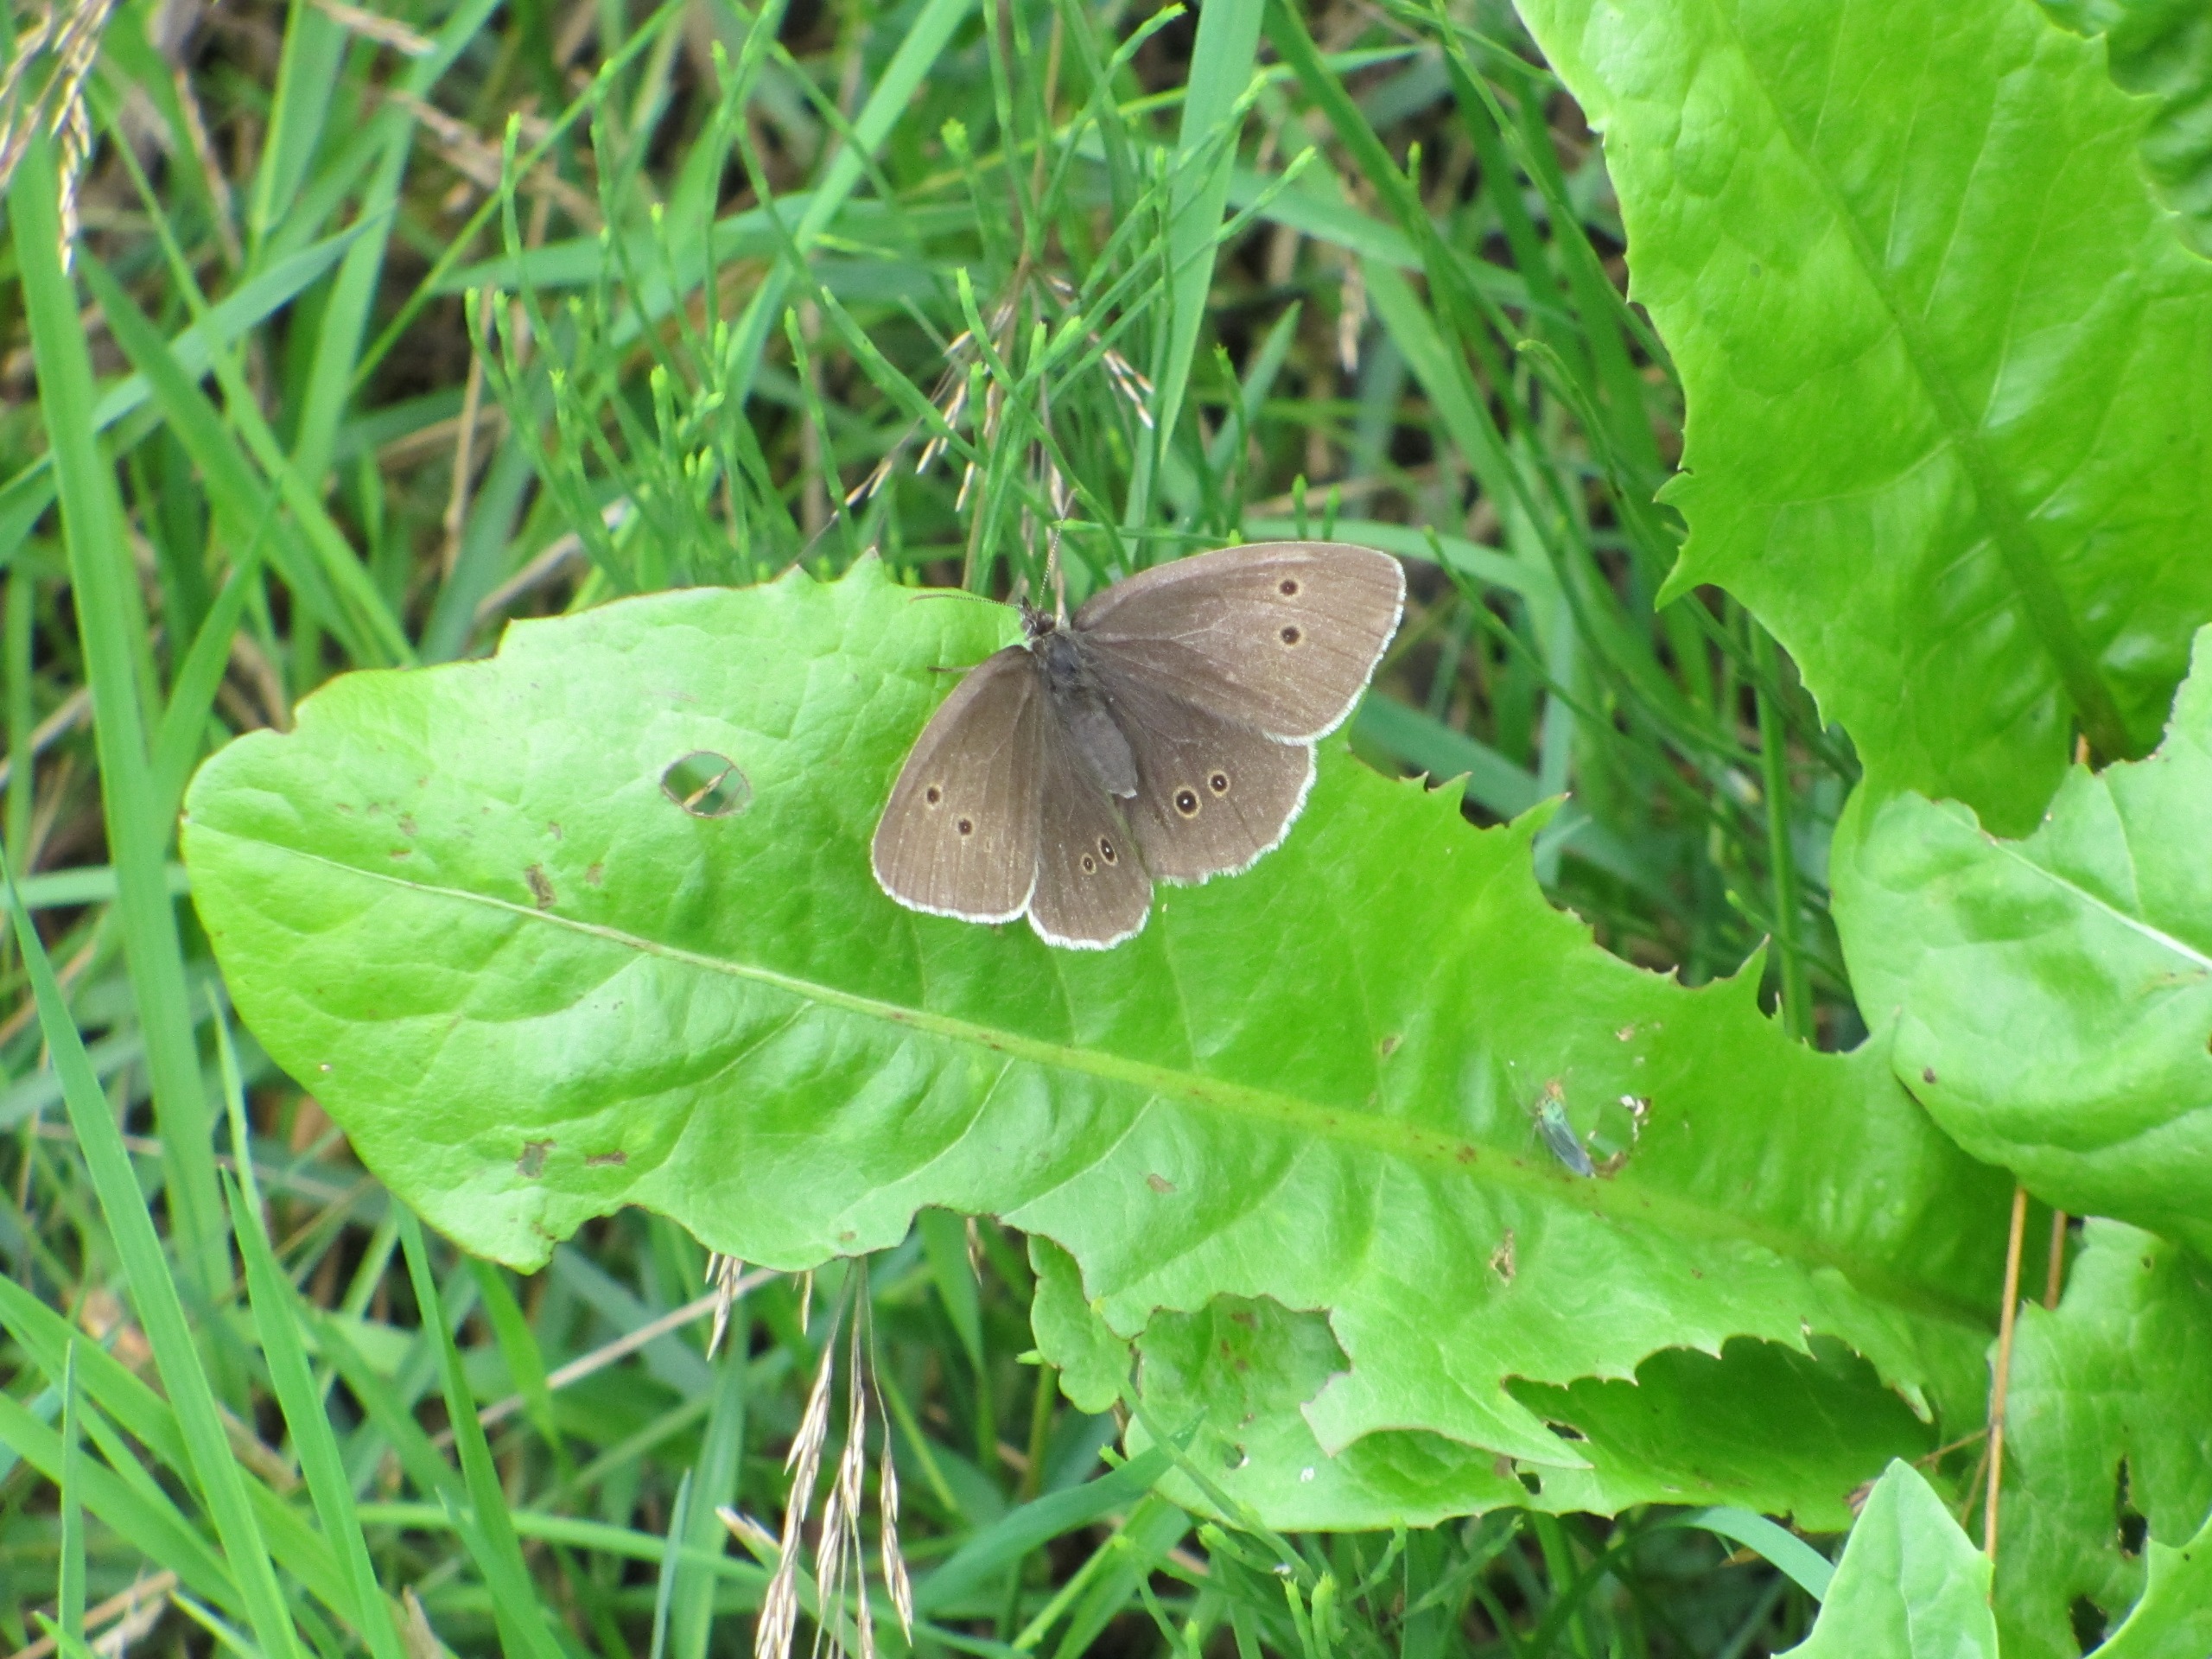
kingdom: Animalia
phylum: Arthropoda
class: Insecta
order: Lepidoptera
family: Nymphalidae
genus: Aphantopus
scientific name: Aphantopus hyperantus
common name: Engrandøje
